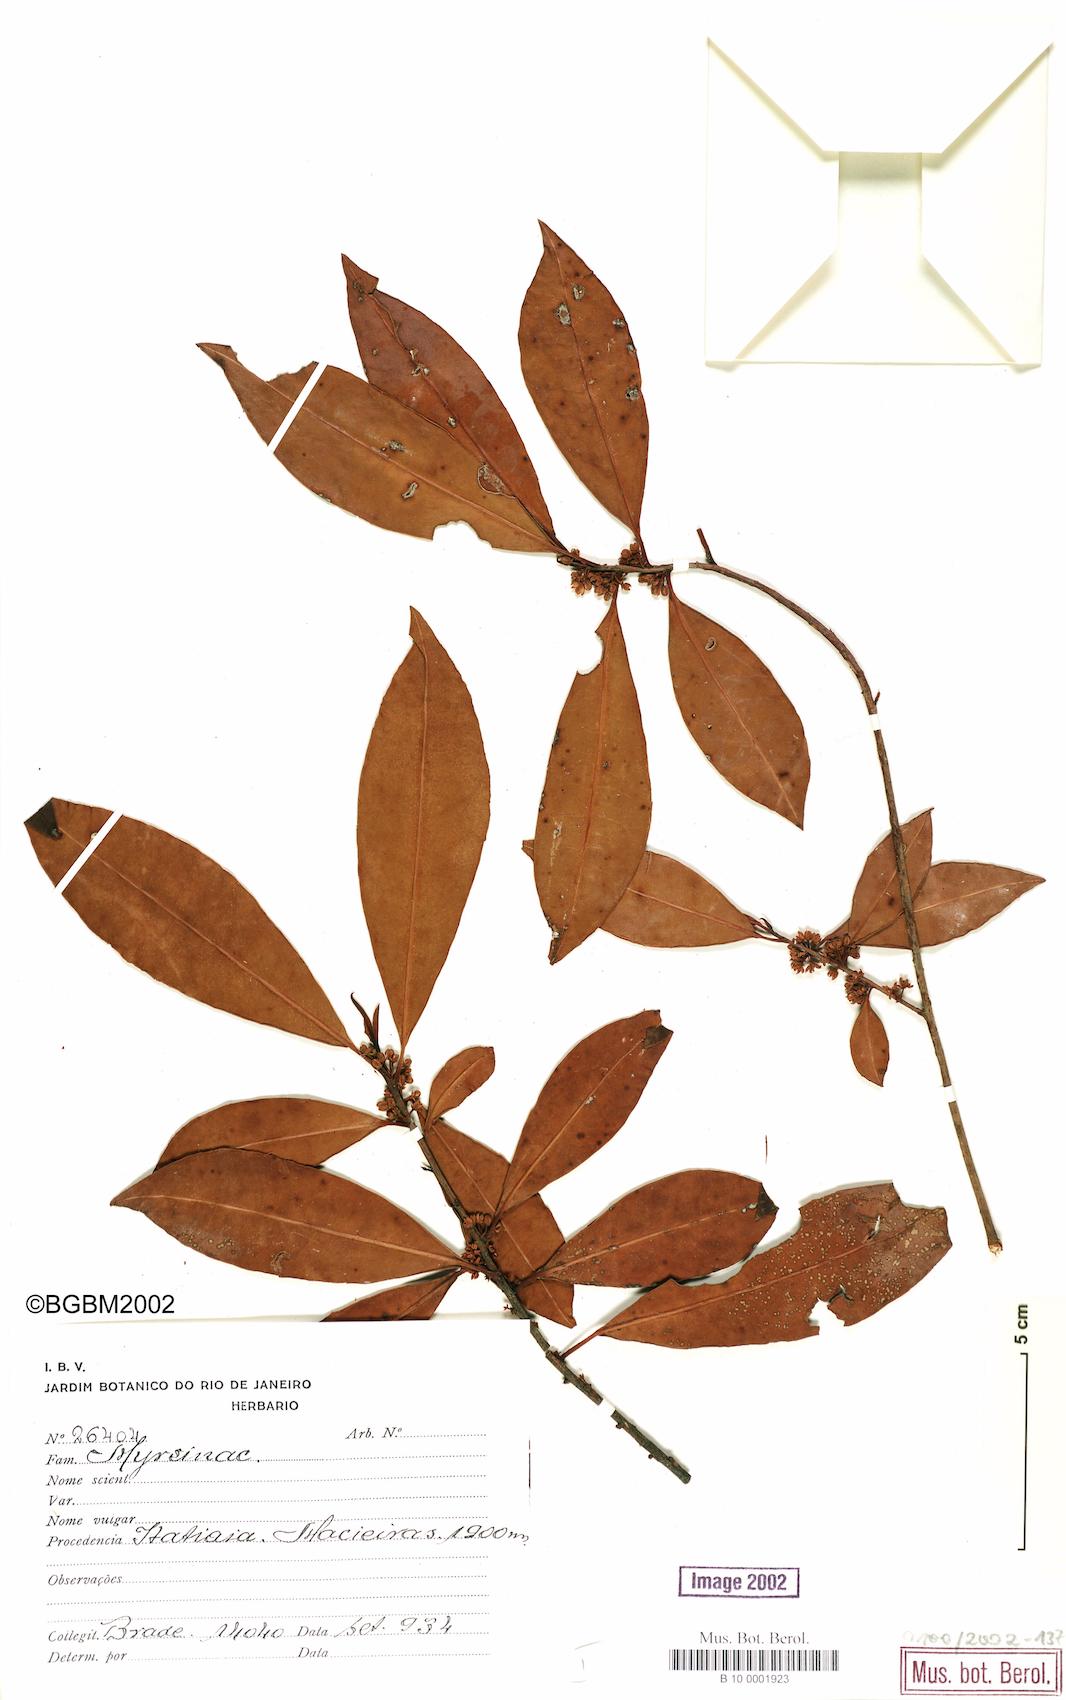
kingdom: Plantae
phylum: Tracheophyta
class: Magnoliopsida
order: Ericales
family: Primulaceae
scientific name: Primulaceae
